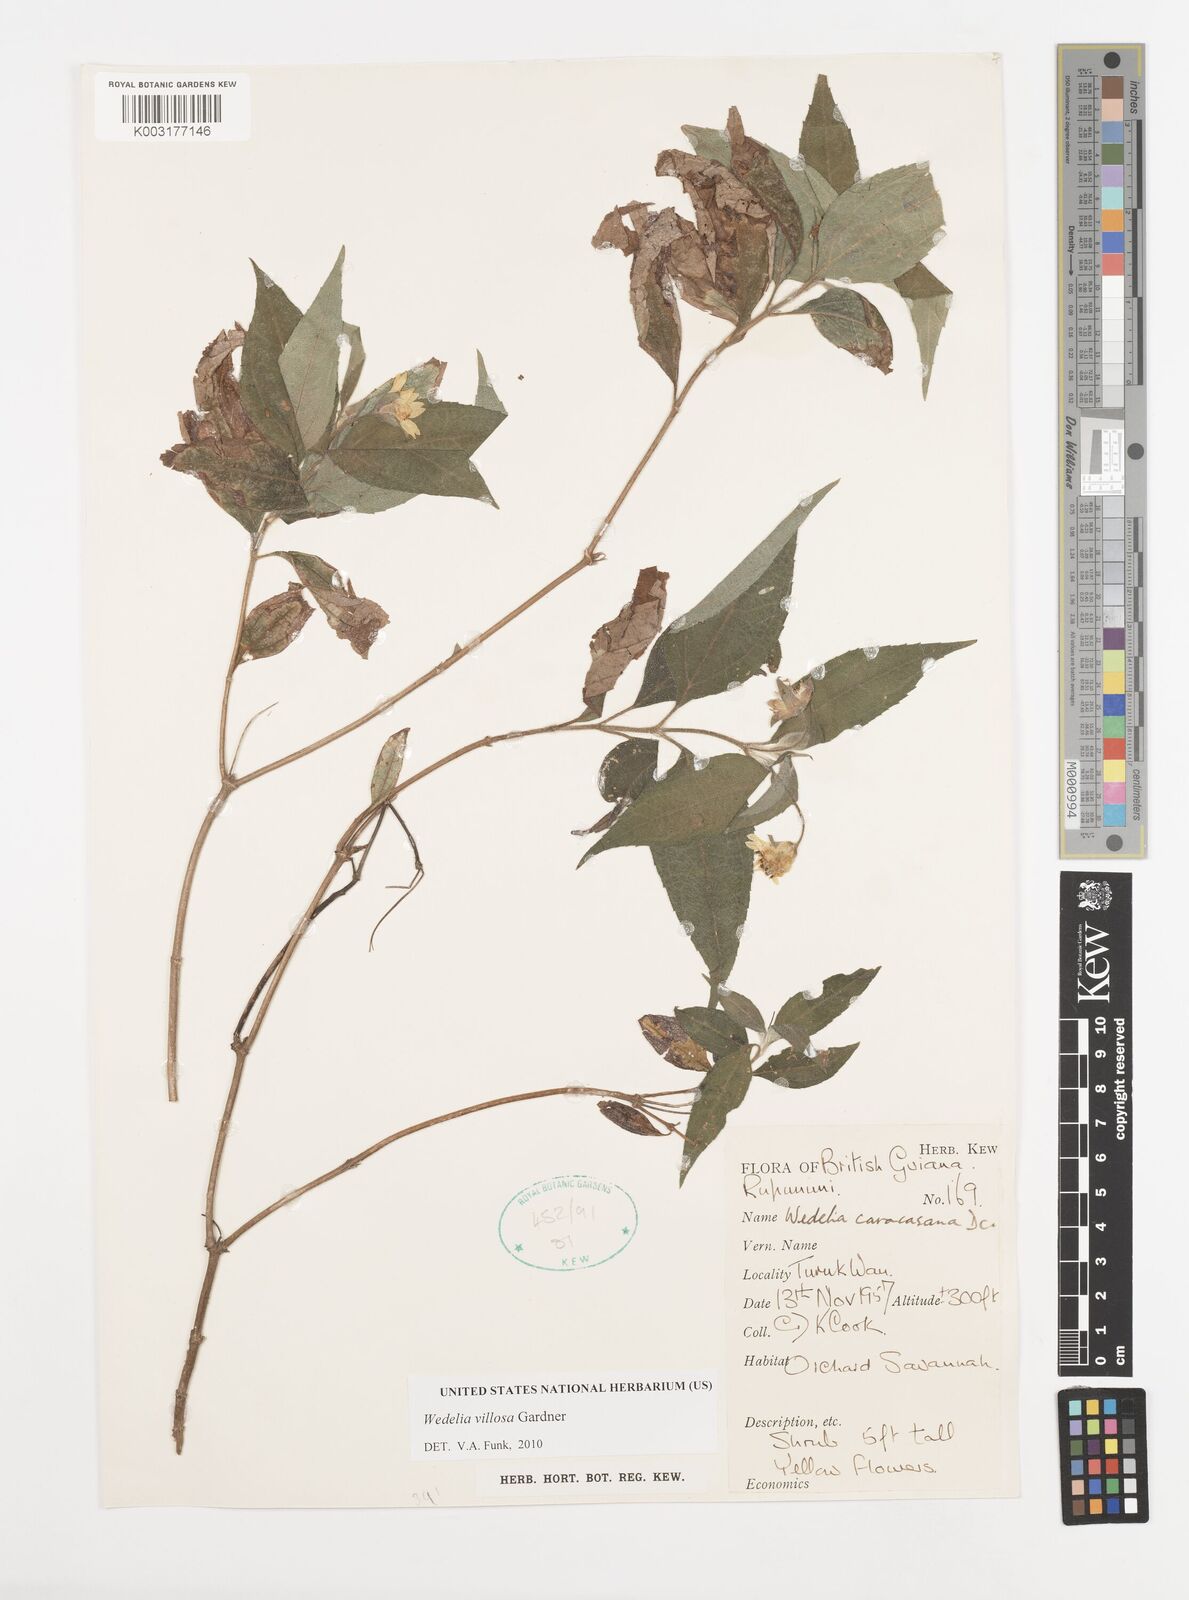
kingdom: Plantae
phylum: Tracheophyta
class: Magnoliopsida
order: Asterales
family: Asteraceae
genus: Wedelia
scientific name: Wedelia villosa
